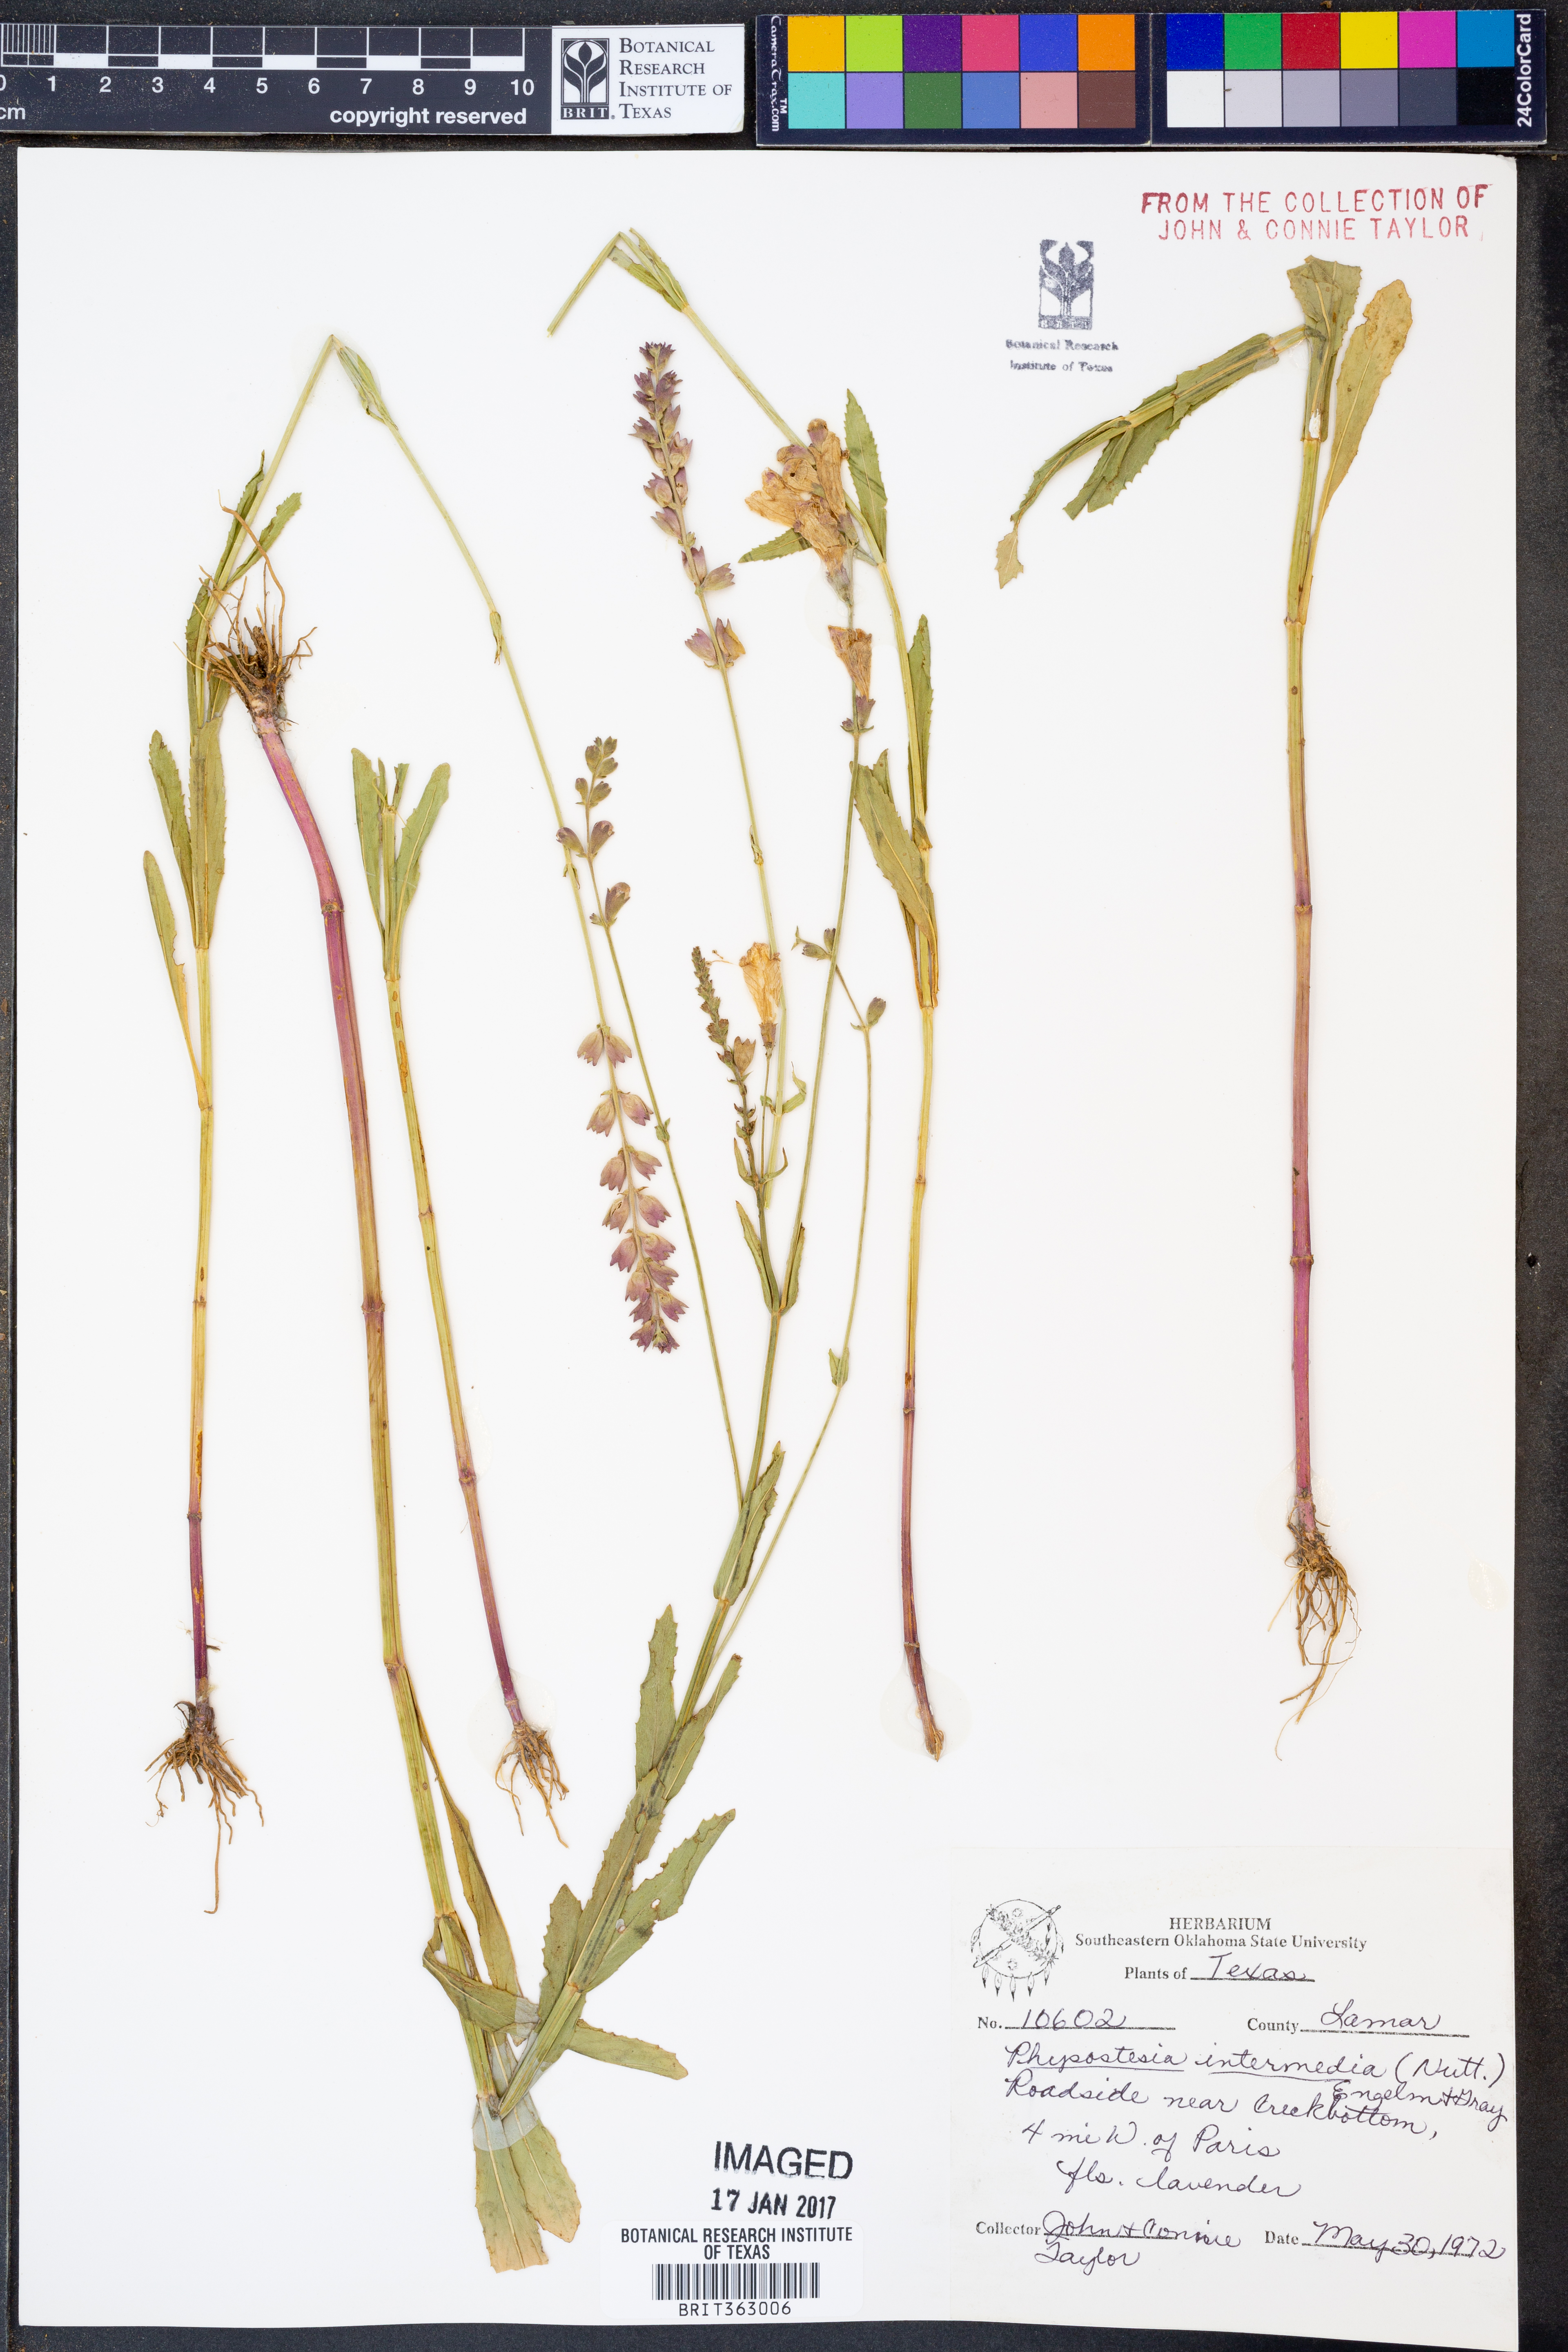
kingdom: Plantae
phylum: Tracheophyta
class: Magnoliopsida
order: Lamiales
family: Lamiaceae
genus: Physostegia
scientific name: Physostegia intermedia
